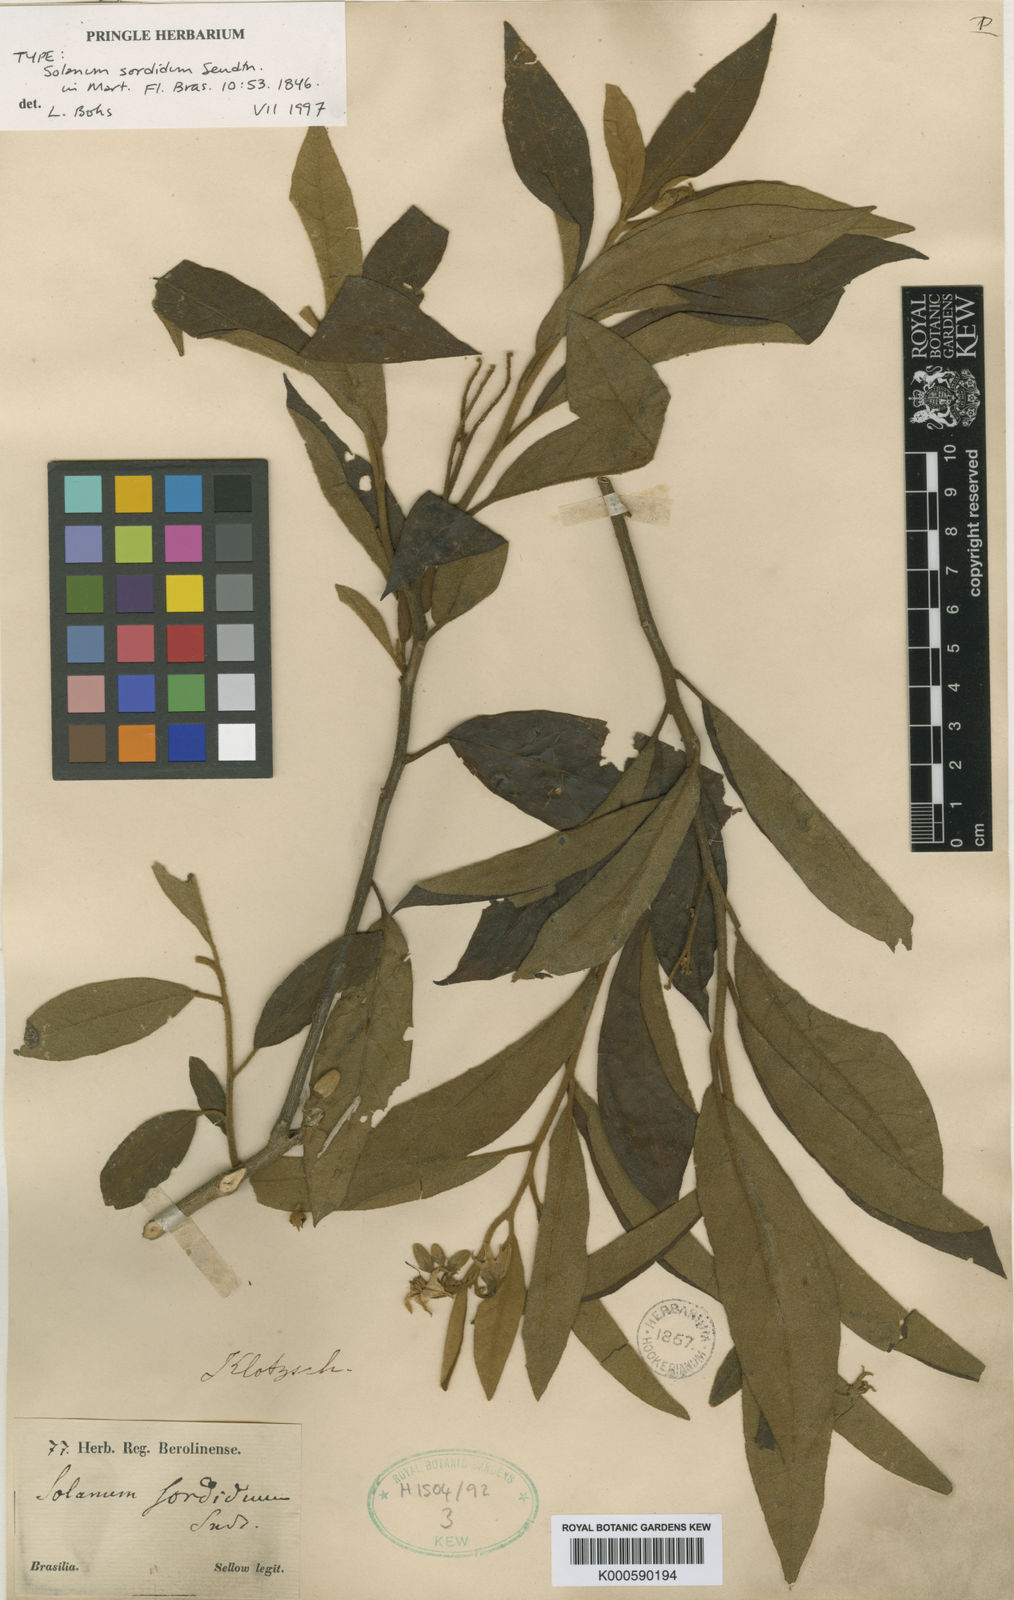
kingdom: Plantae
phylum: Tracheophyta
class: Magnoliopsida
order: Solanales
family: Solanaceae
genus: Solanum
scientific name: Solanum subumbellatum
